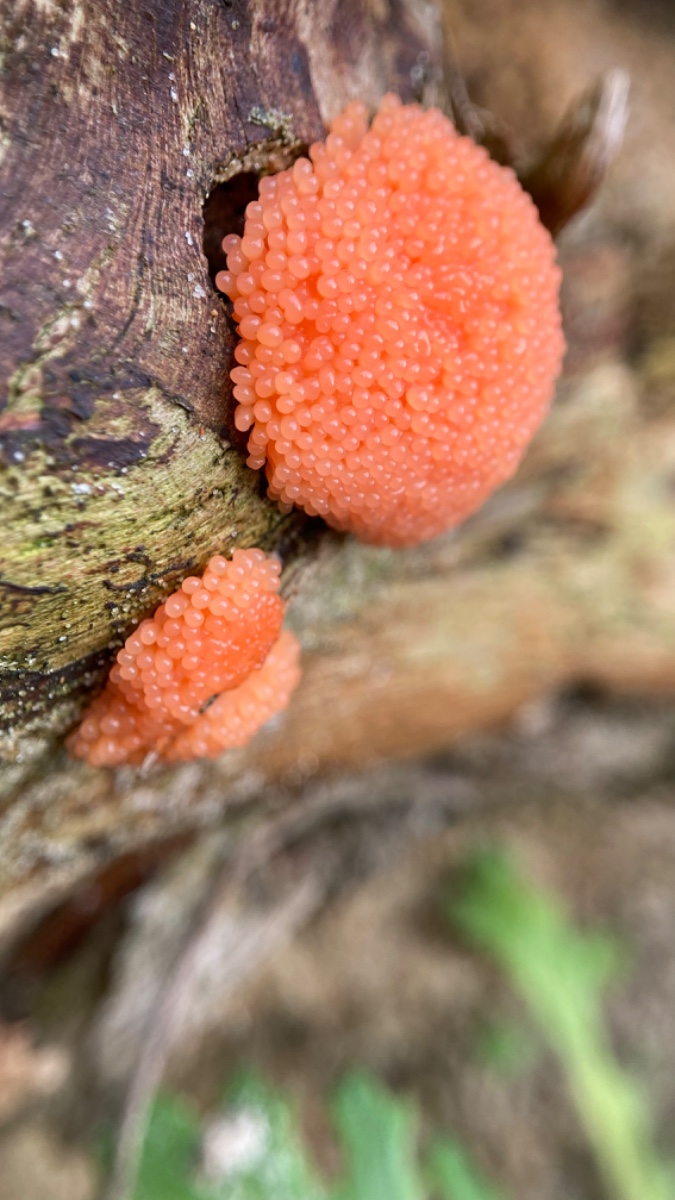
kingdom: Protozoa
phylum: Mycetozoa
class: Myxomycetes
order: Cribrariales
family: Tubiferaceae
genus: Tubifera
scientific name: Tubifera ferruginosa
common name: kanel-støvrør
